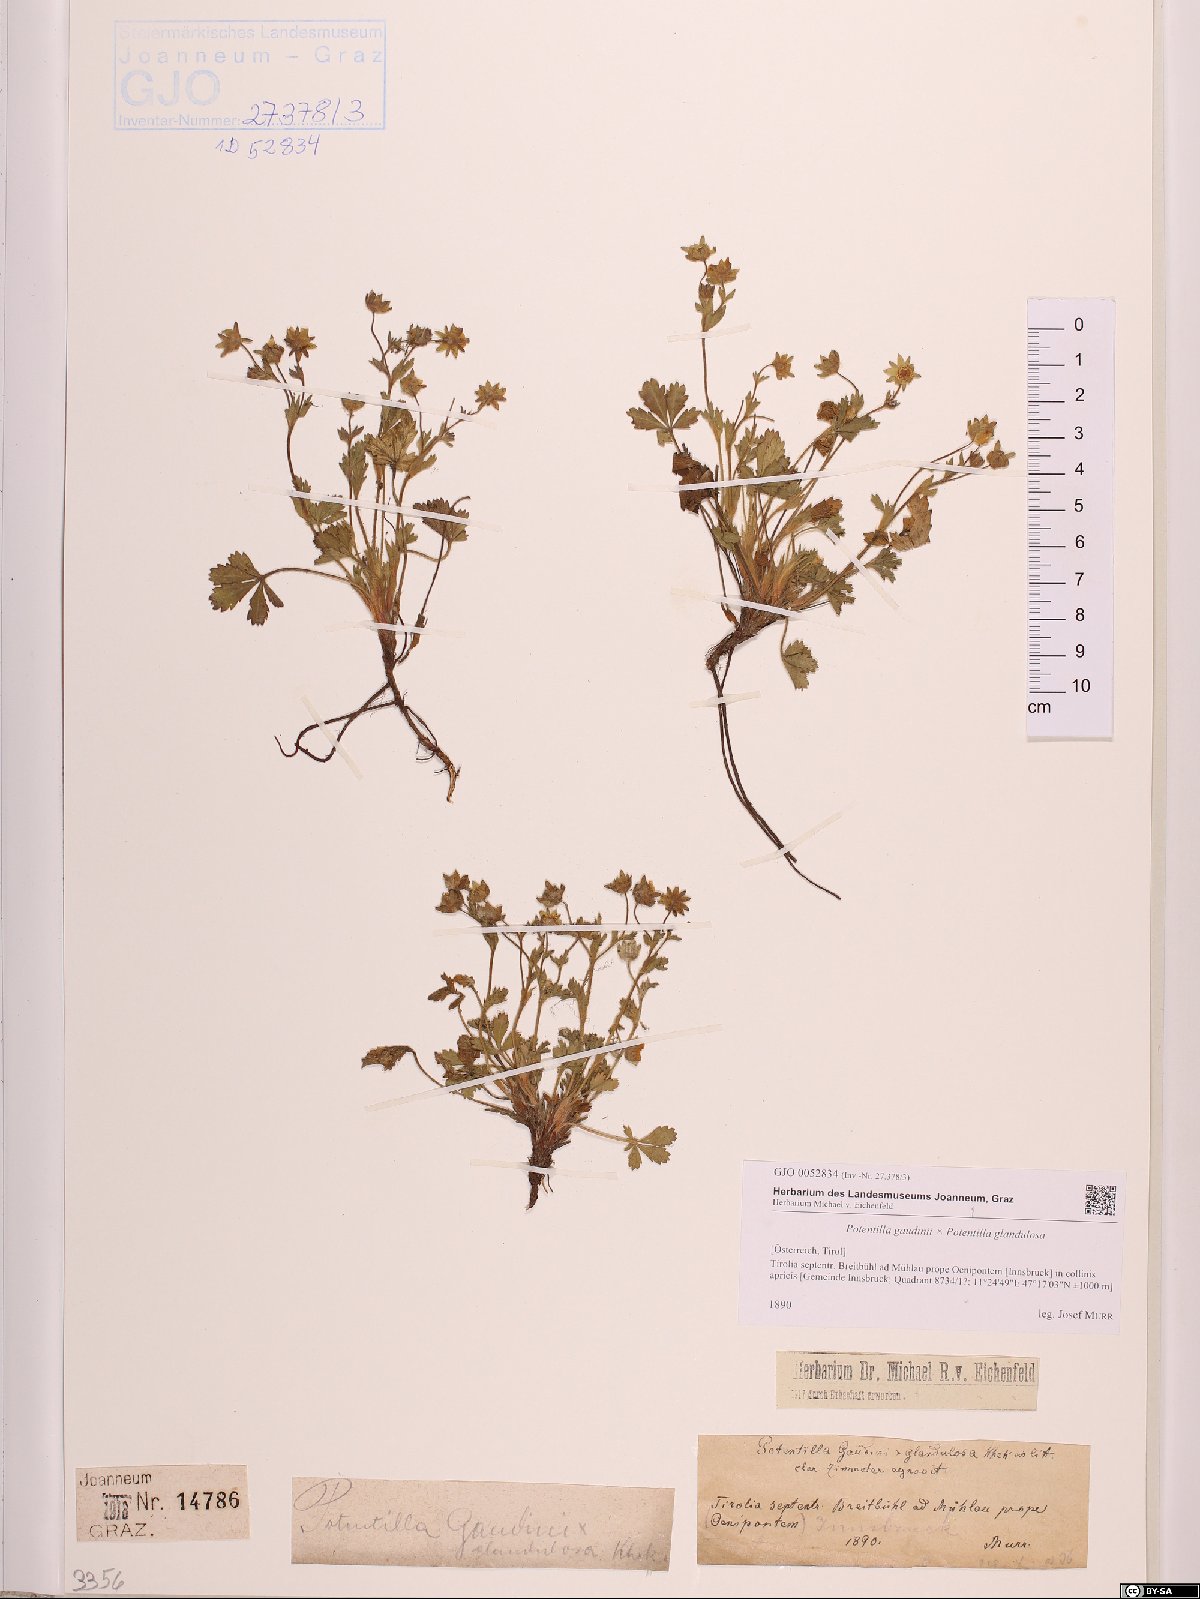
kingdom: Plantae
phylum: Tracheophyta
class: Magnoliopsida
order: Rosales
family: Rosaceae
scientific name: Rosaceae
